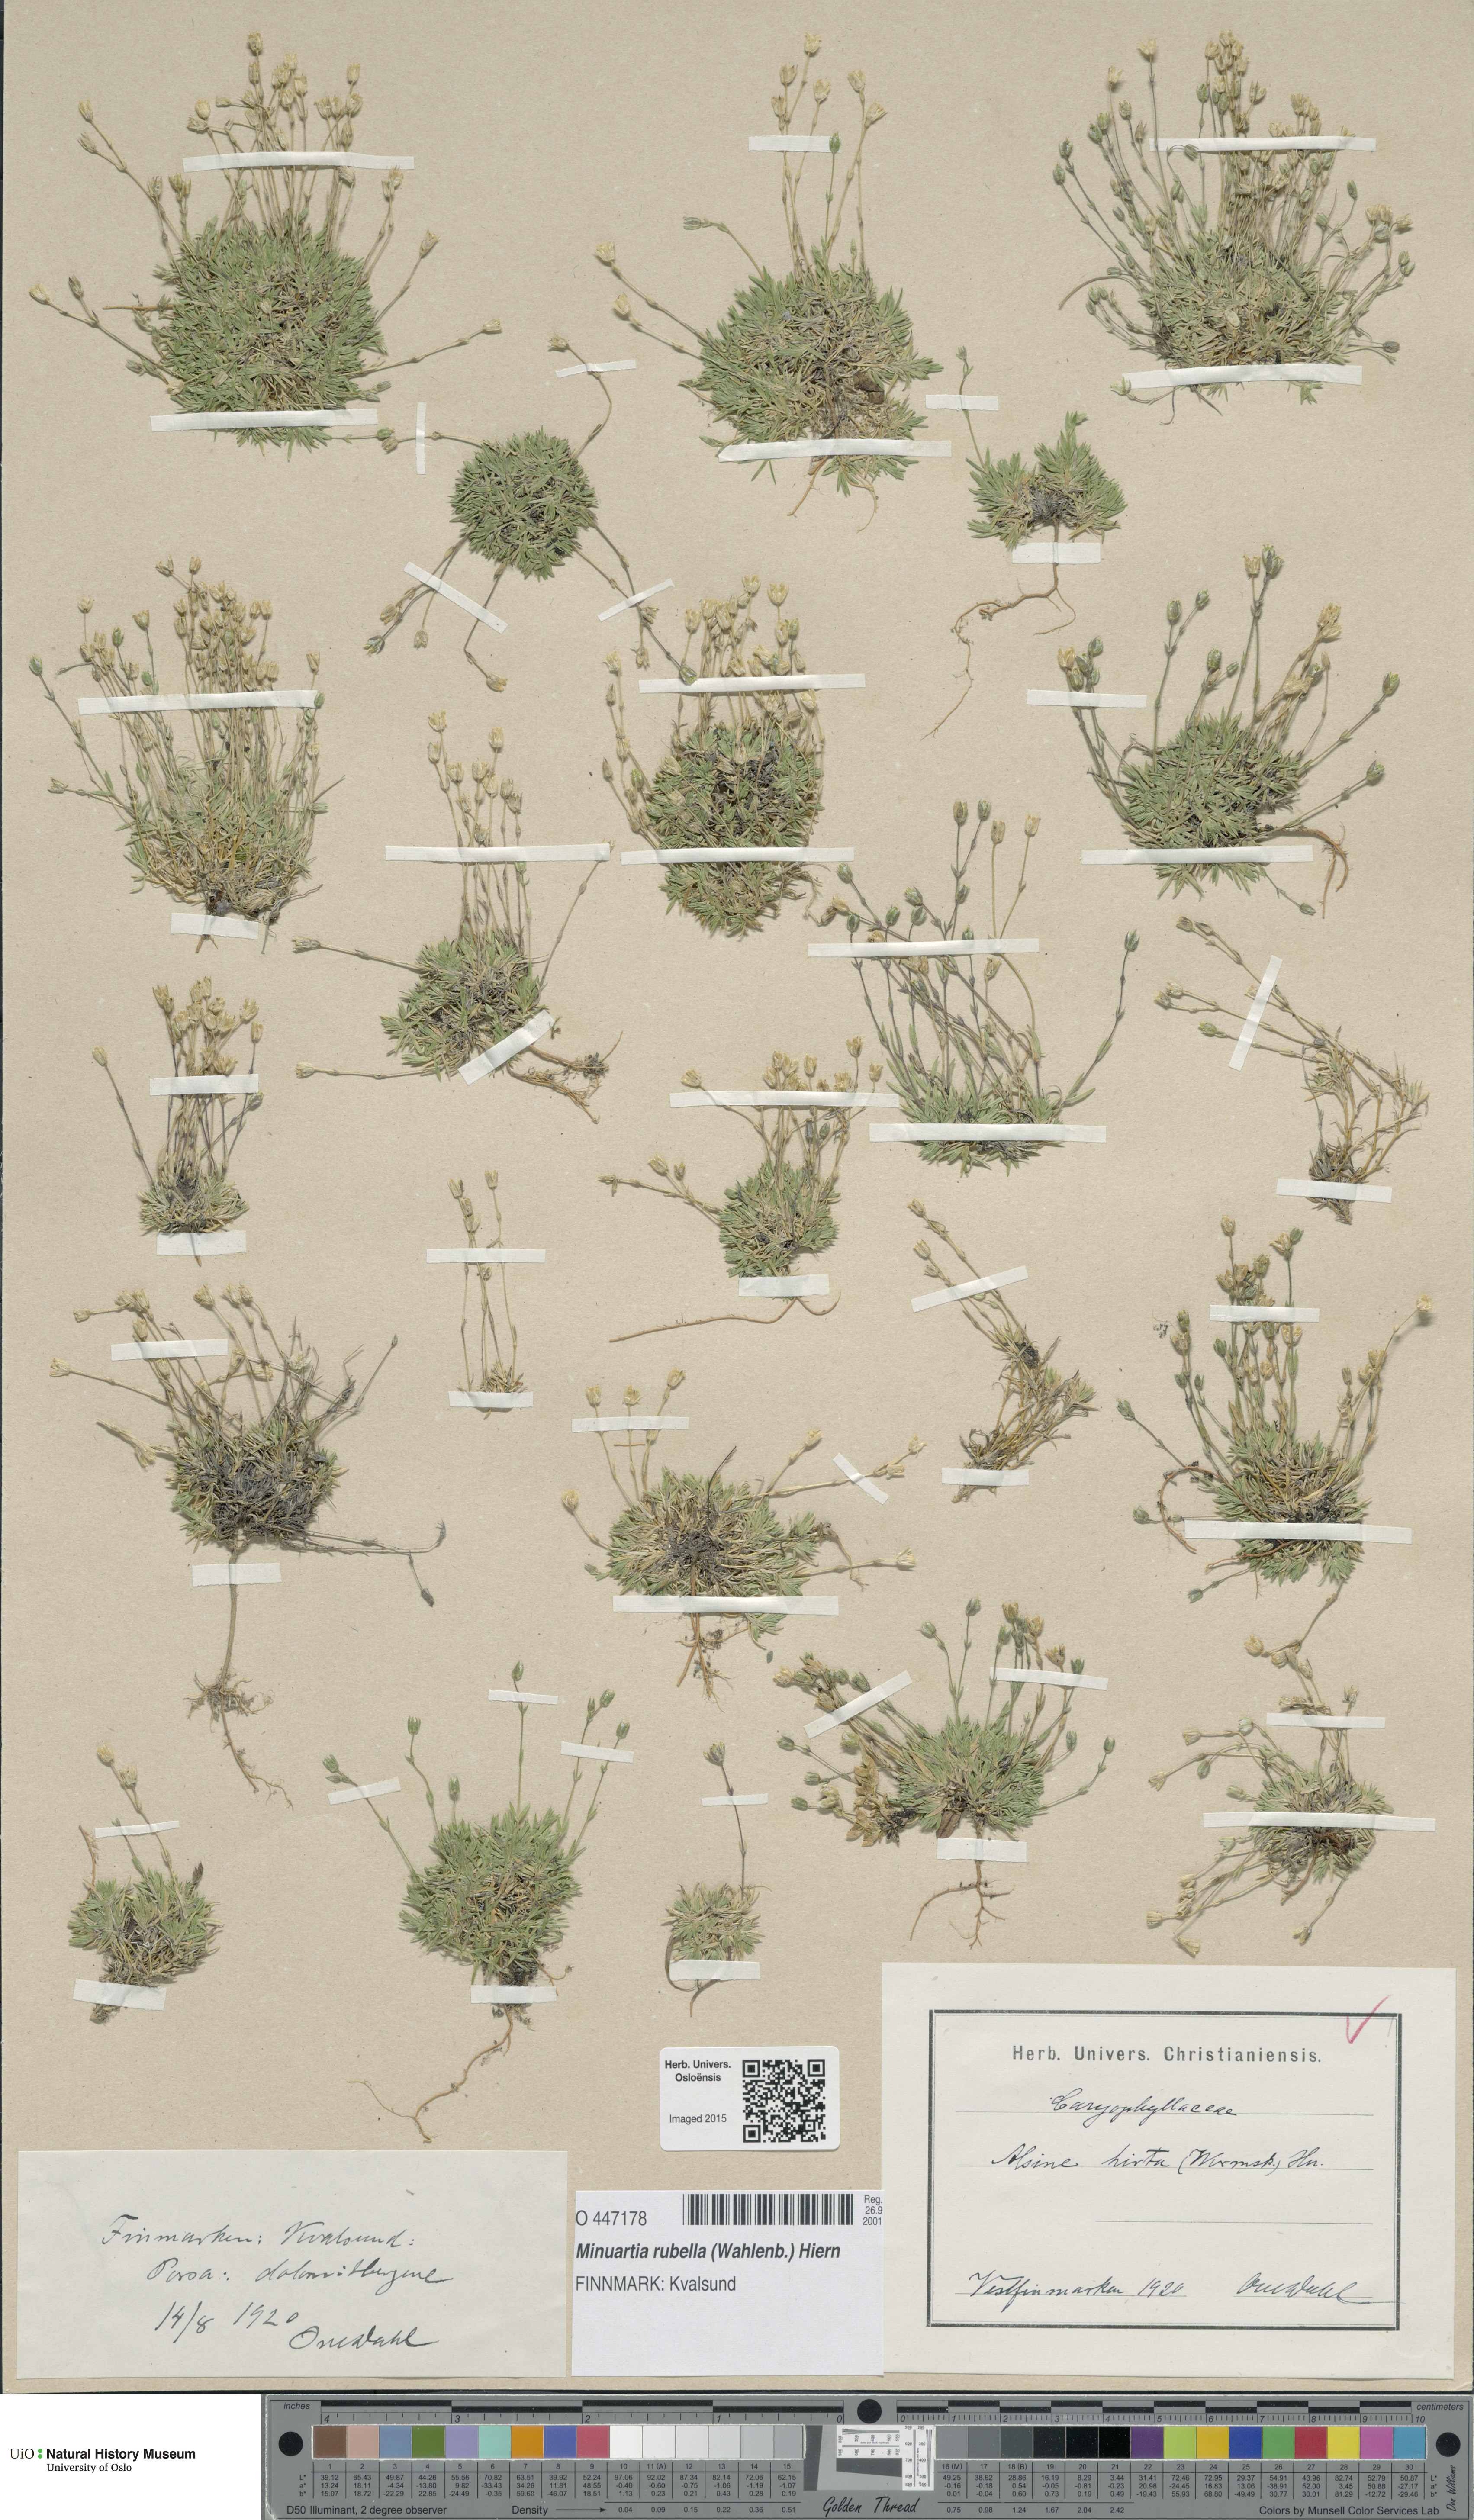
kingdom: Plantae
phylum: Tracheophyta
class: Magnoliopsida
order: Caryophyllales
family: Caryophyllaceae
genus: Sabulina
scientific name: Sabulina rubella
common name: Beautiful sandwort
